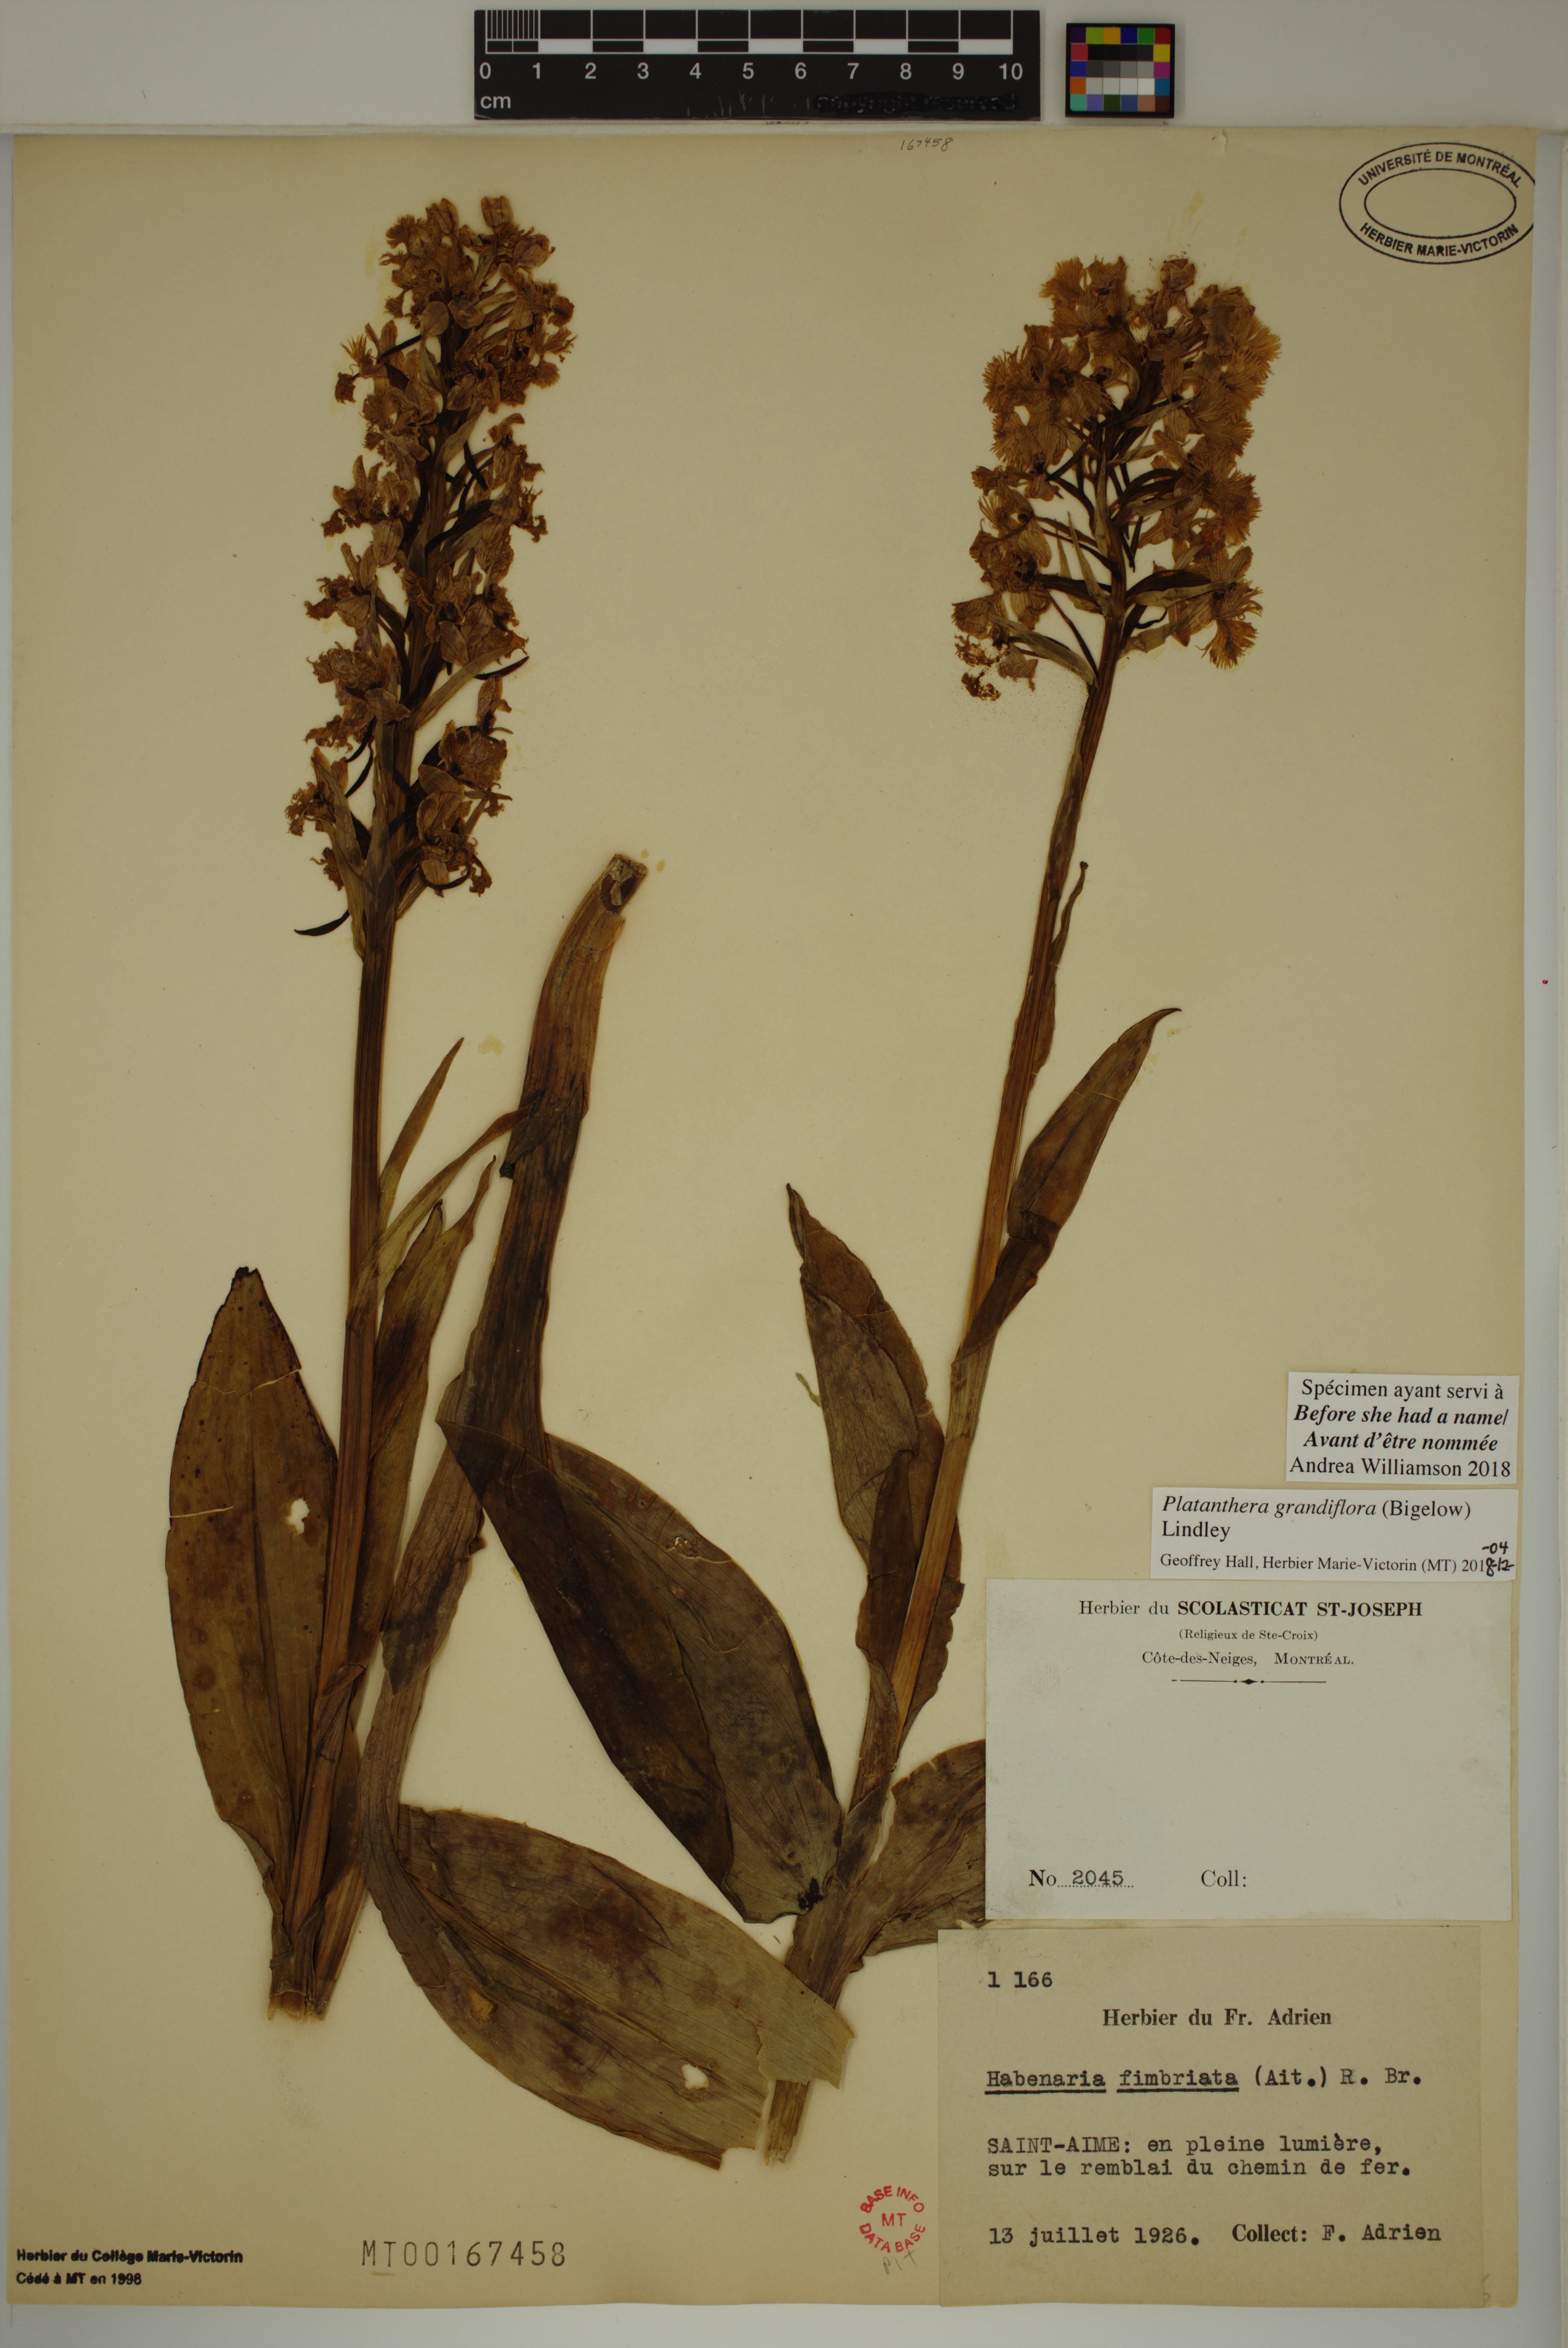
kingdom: Plantae
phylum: Tracheophyta
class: Liliopsida
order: Asparagales
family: Orchidaceae
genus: Platanthera
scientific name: Platanthera grandiflora
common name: Greater purple fringed orchid
